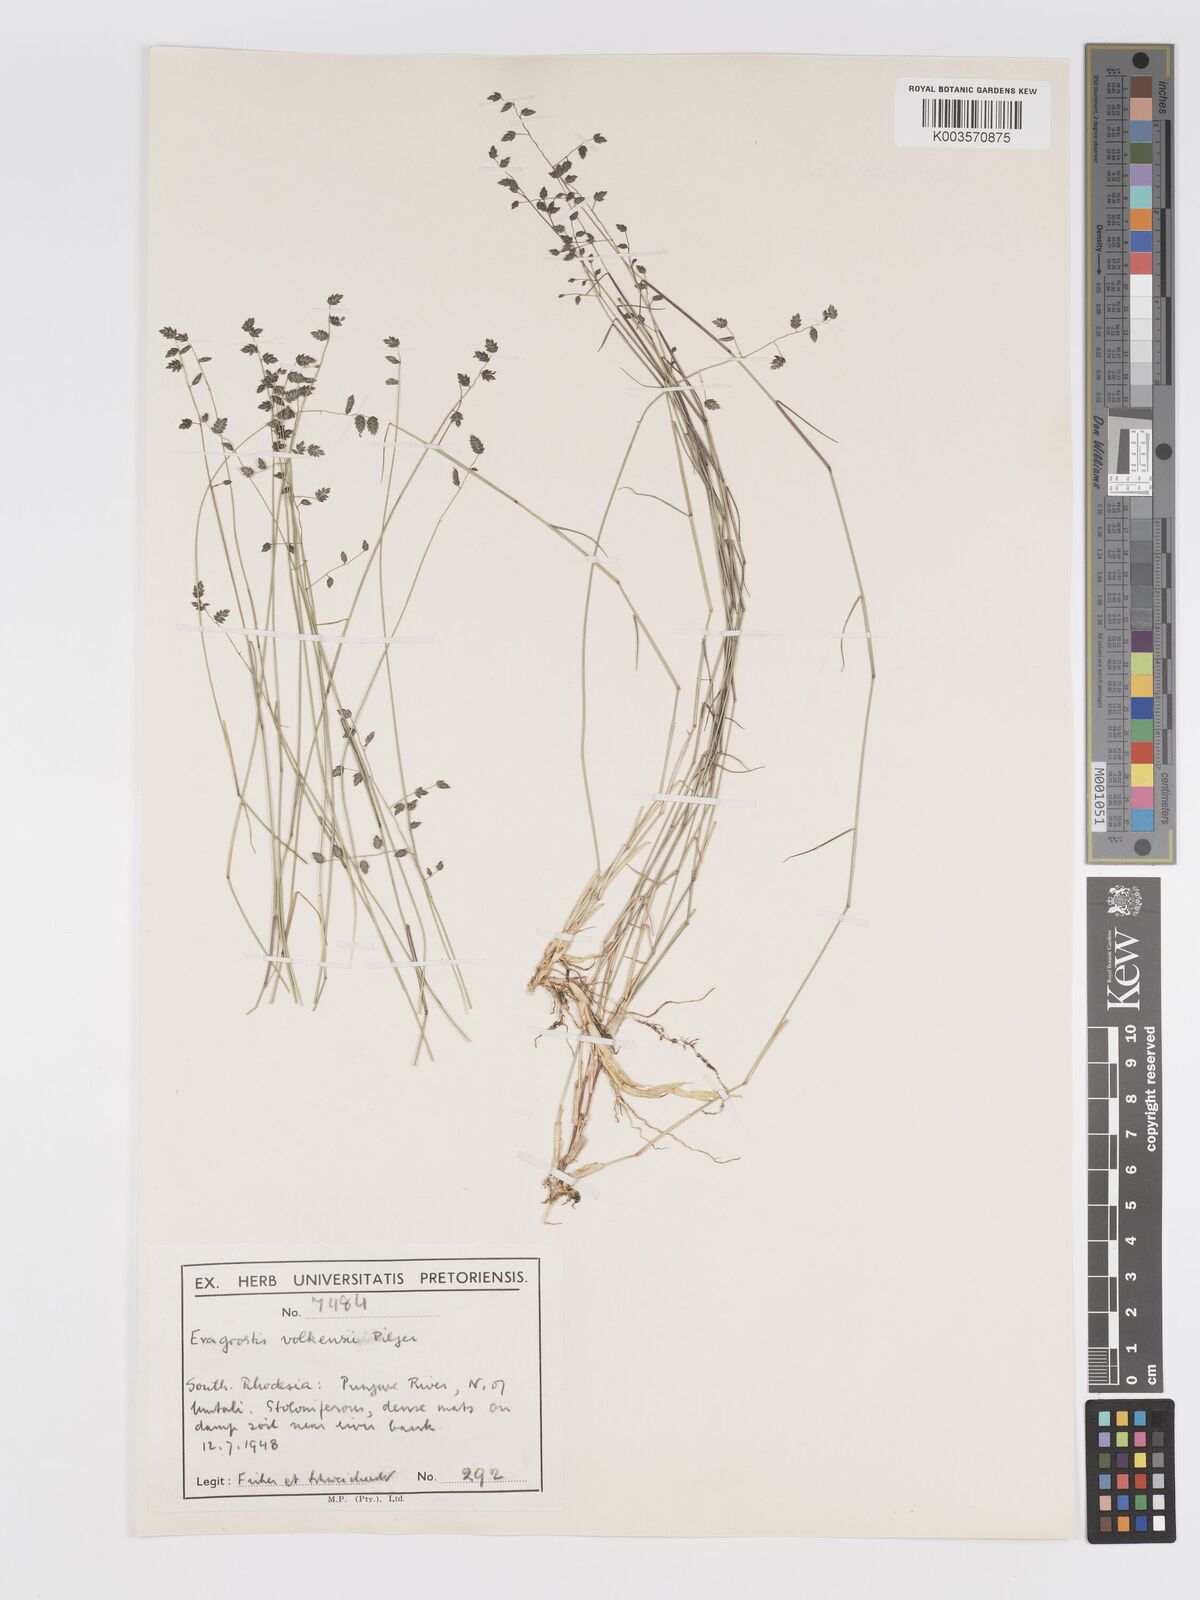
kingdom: Plantae
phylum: Tracheophyta
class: Liliopsida
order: Poales
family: Poaceae
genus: Eragrostis
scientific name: Eragrostis volkensii
